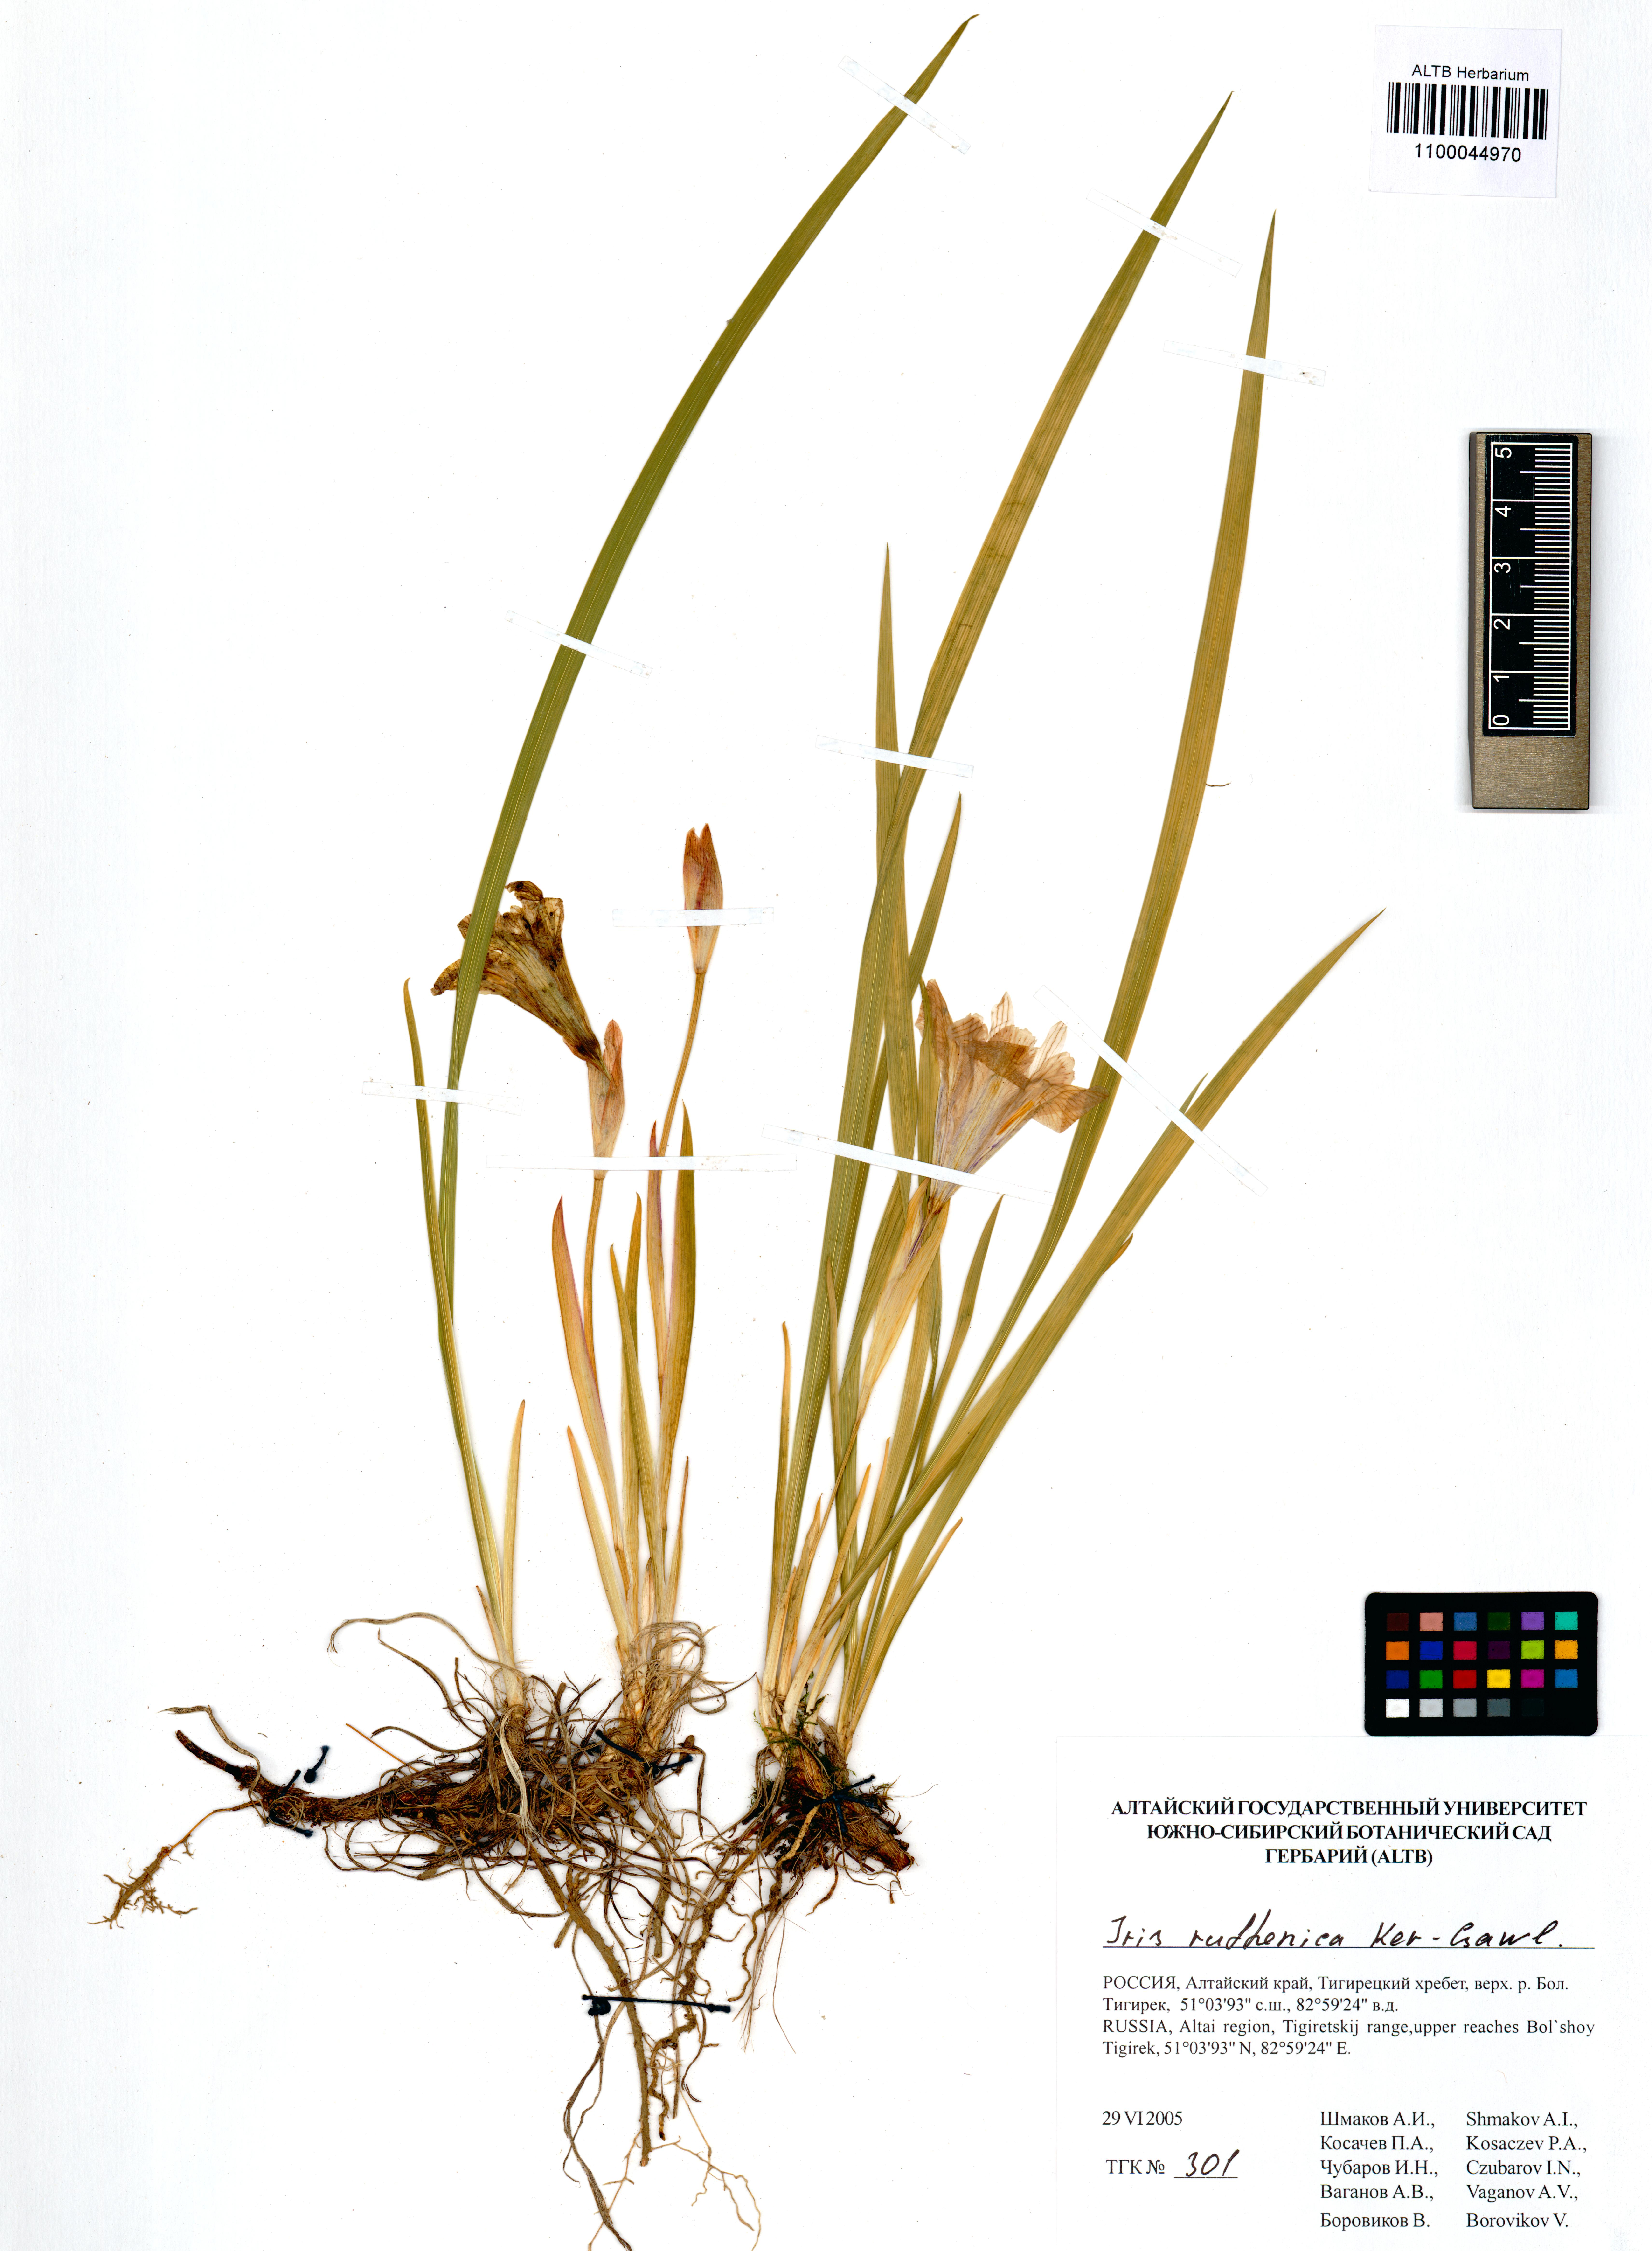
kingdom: Plantae
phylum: Tracheophyta
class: Liliopsida
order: Asparagales
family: Iridaceae
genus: Iris
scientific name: Iris ruthenica
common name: Purple-bract iris
